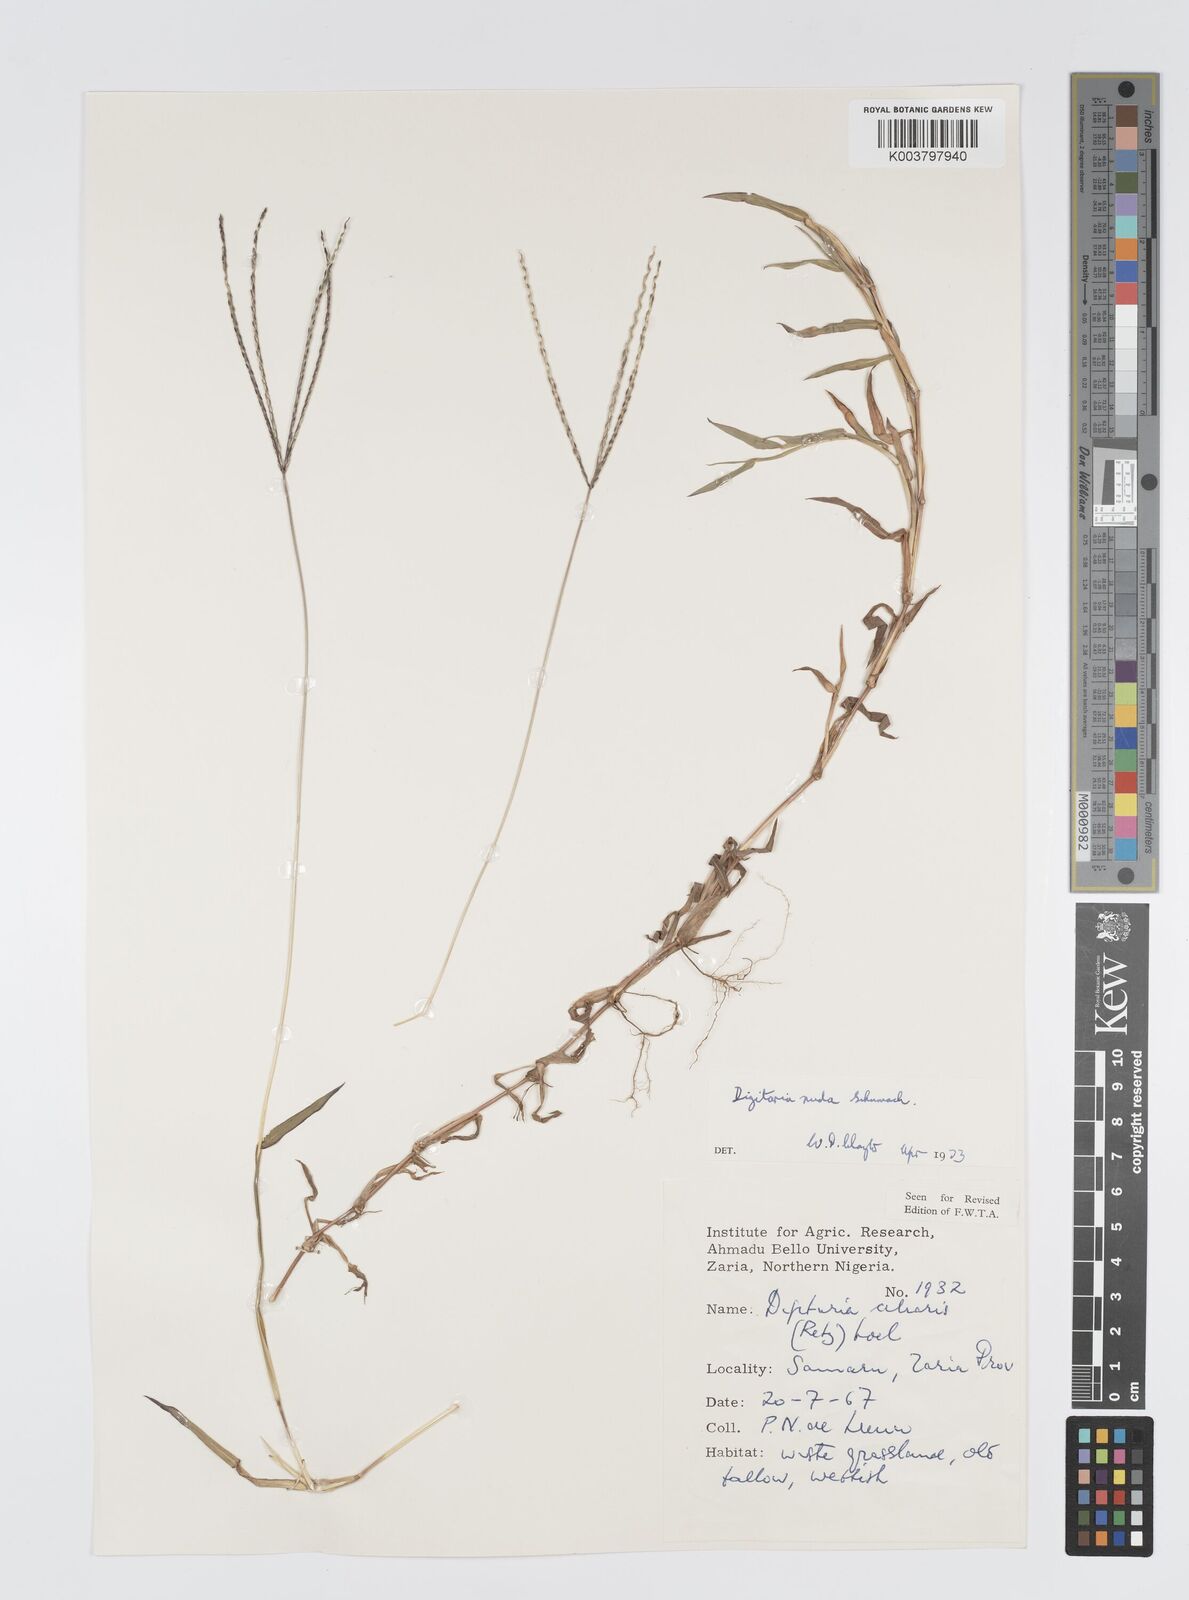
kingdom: Plantae
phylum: Tracheophyta
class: Liliopsida
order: Poales
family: Poaceae
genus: Digitaria
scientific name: Digitaria nuda
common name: Naked crabgrass
